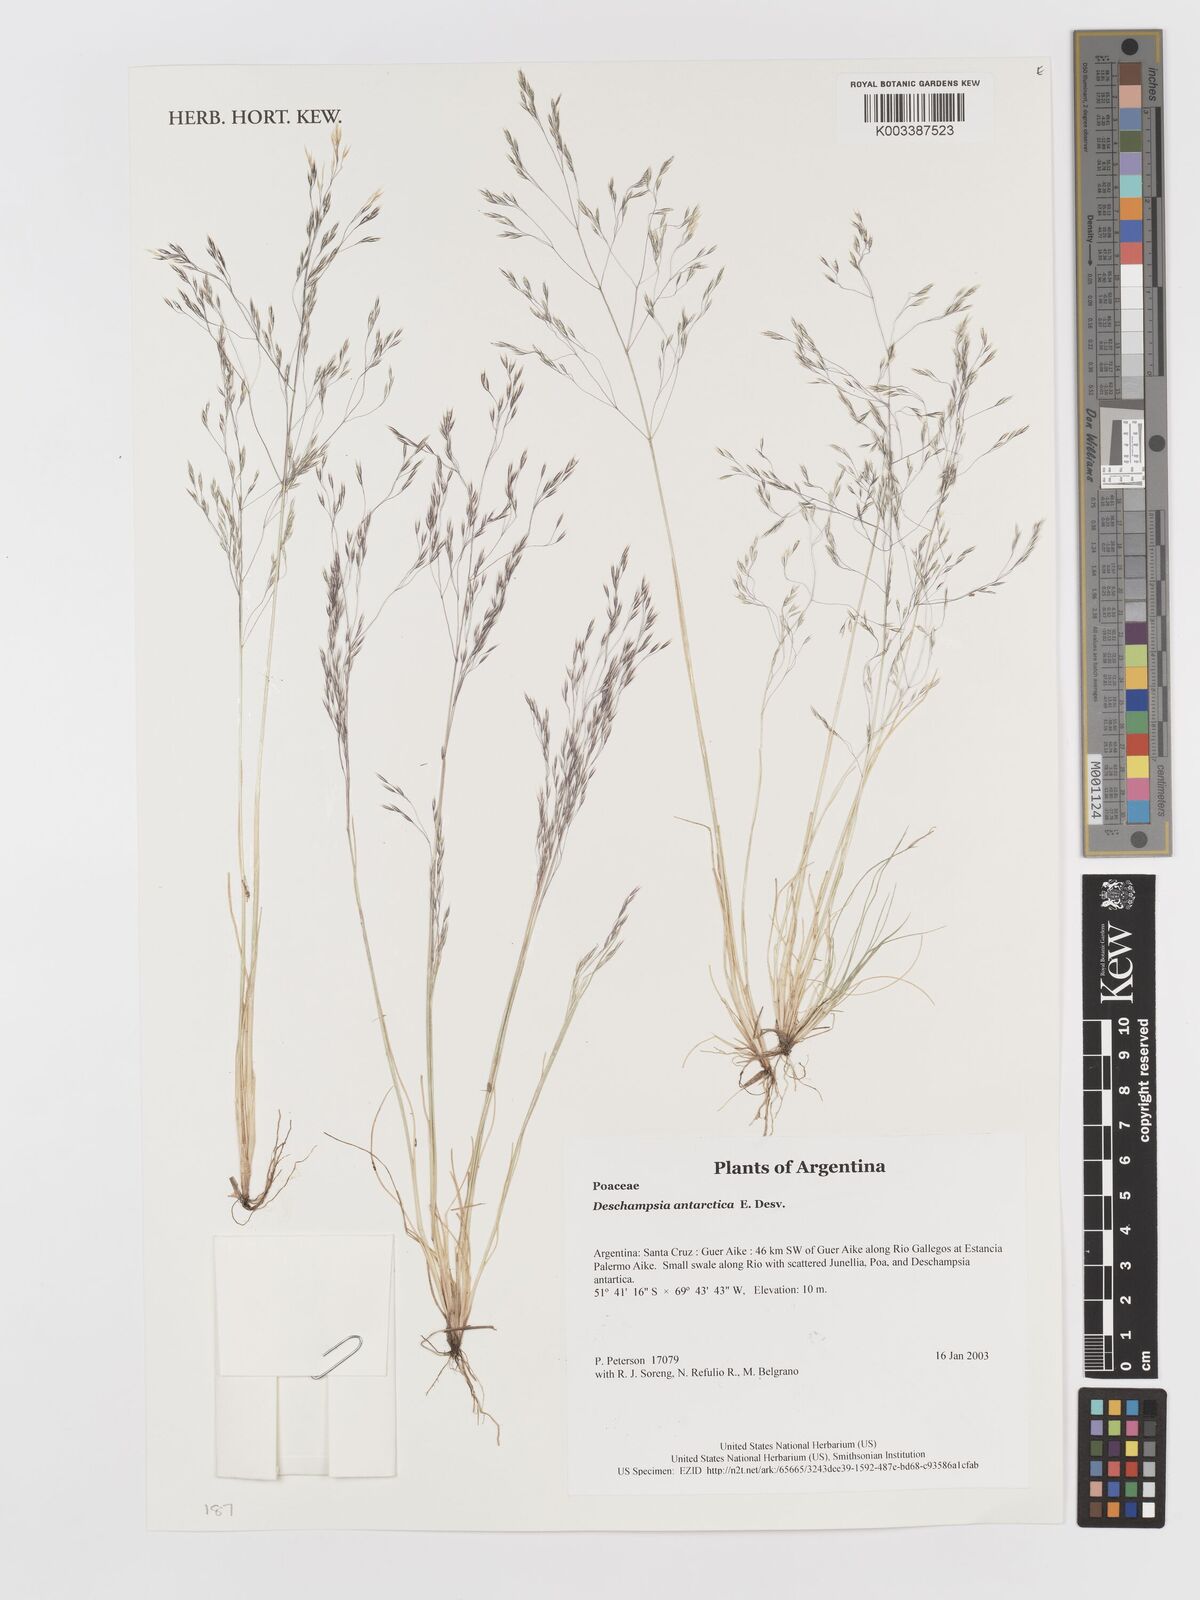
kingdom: Plantae
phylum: Tracheophyta
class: Liliopsida
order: Poales
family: Poaceae
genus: Deschampsia
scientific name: Deschampsia antarctica
